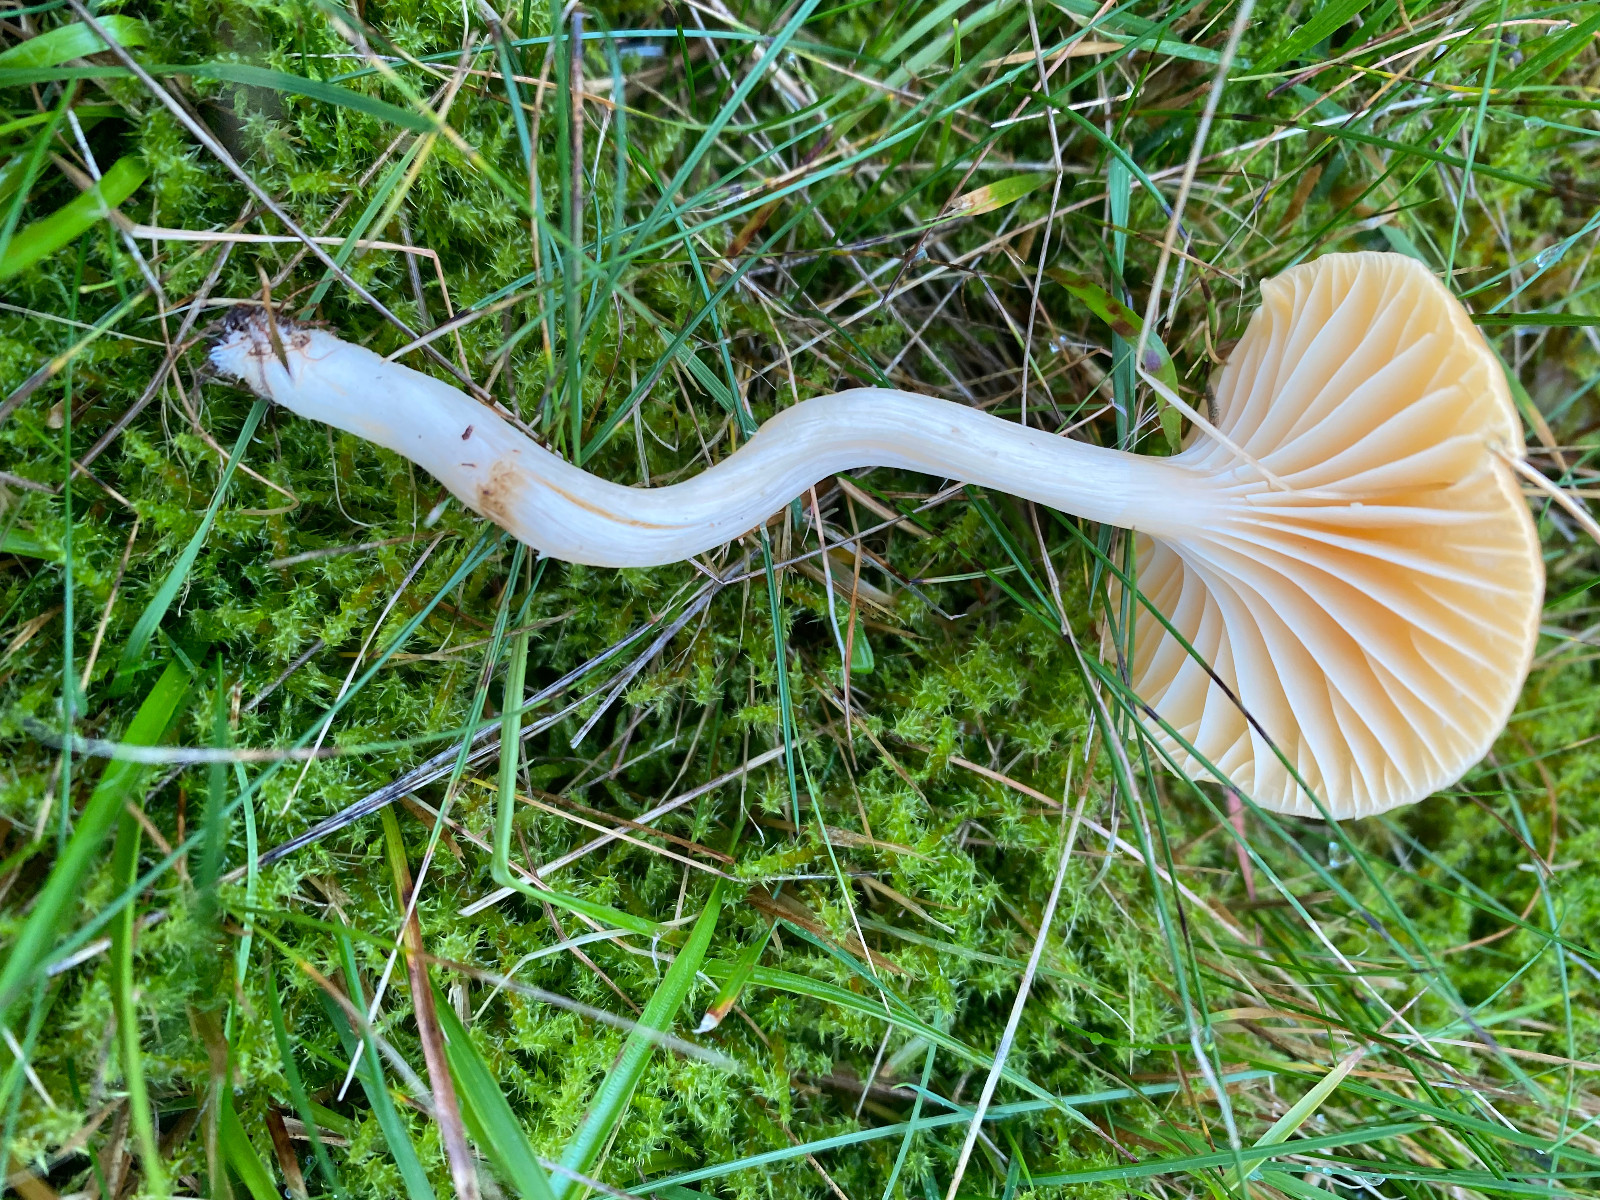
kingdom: Fungi
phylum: Basidiomycota
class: Agaricomycetes
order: Agaricales
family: Hygrophoraceae
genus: Cuphophyllus
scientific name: Cuphophyllus pratensis
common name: eng-vokshat
